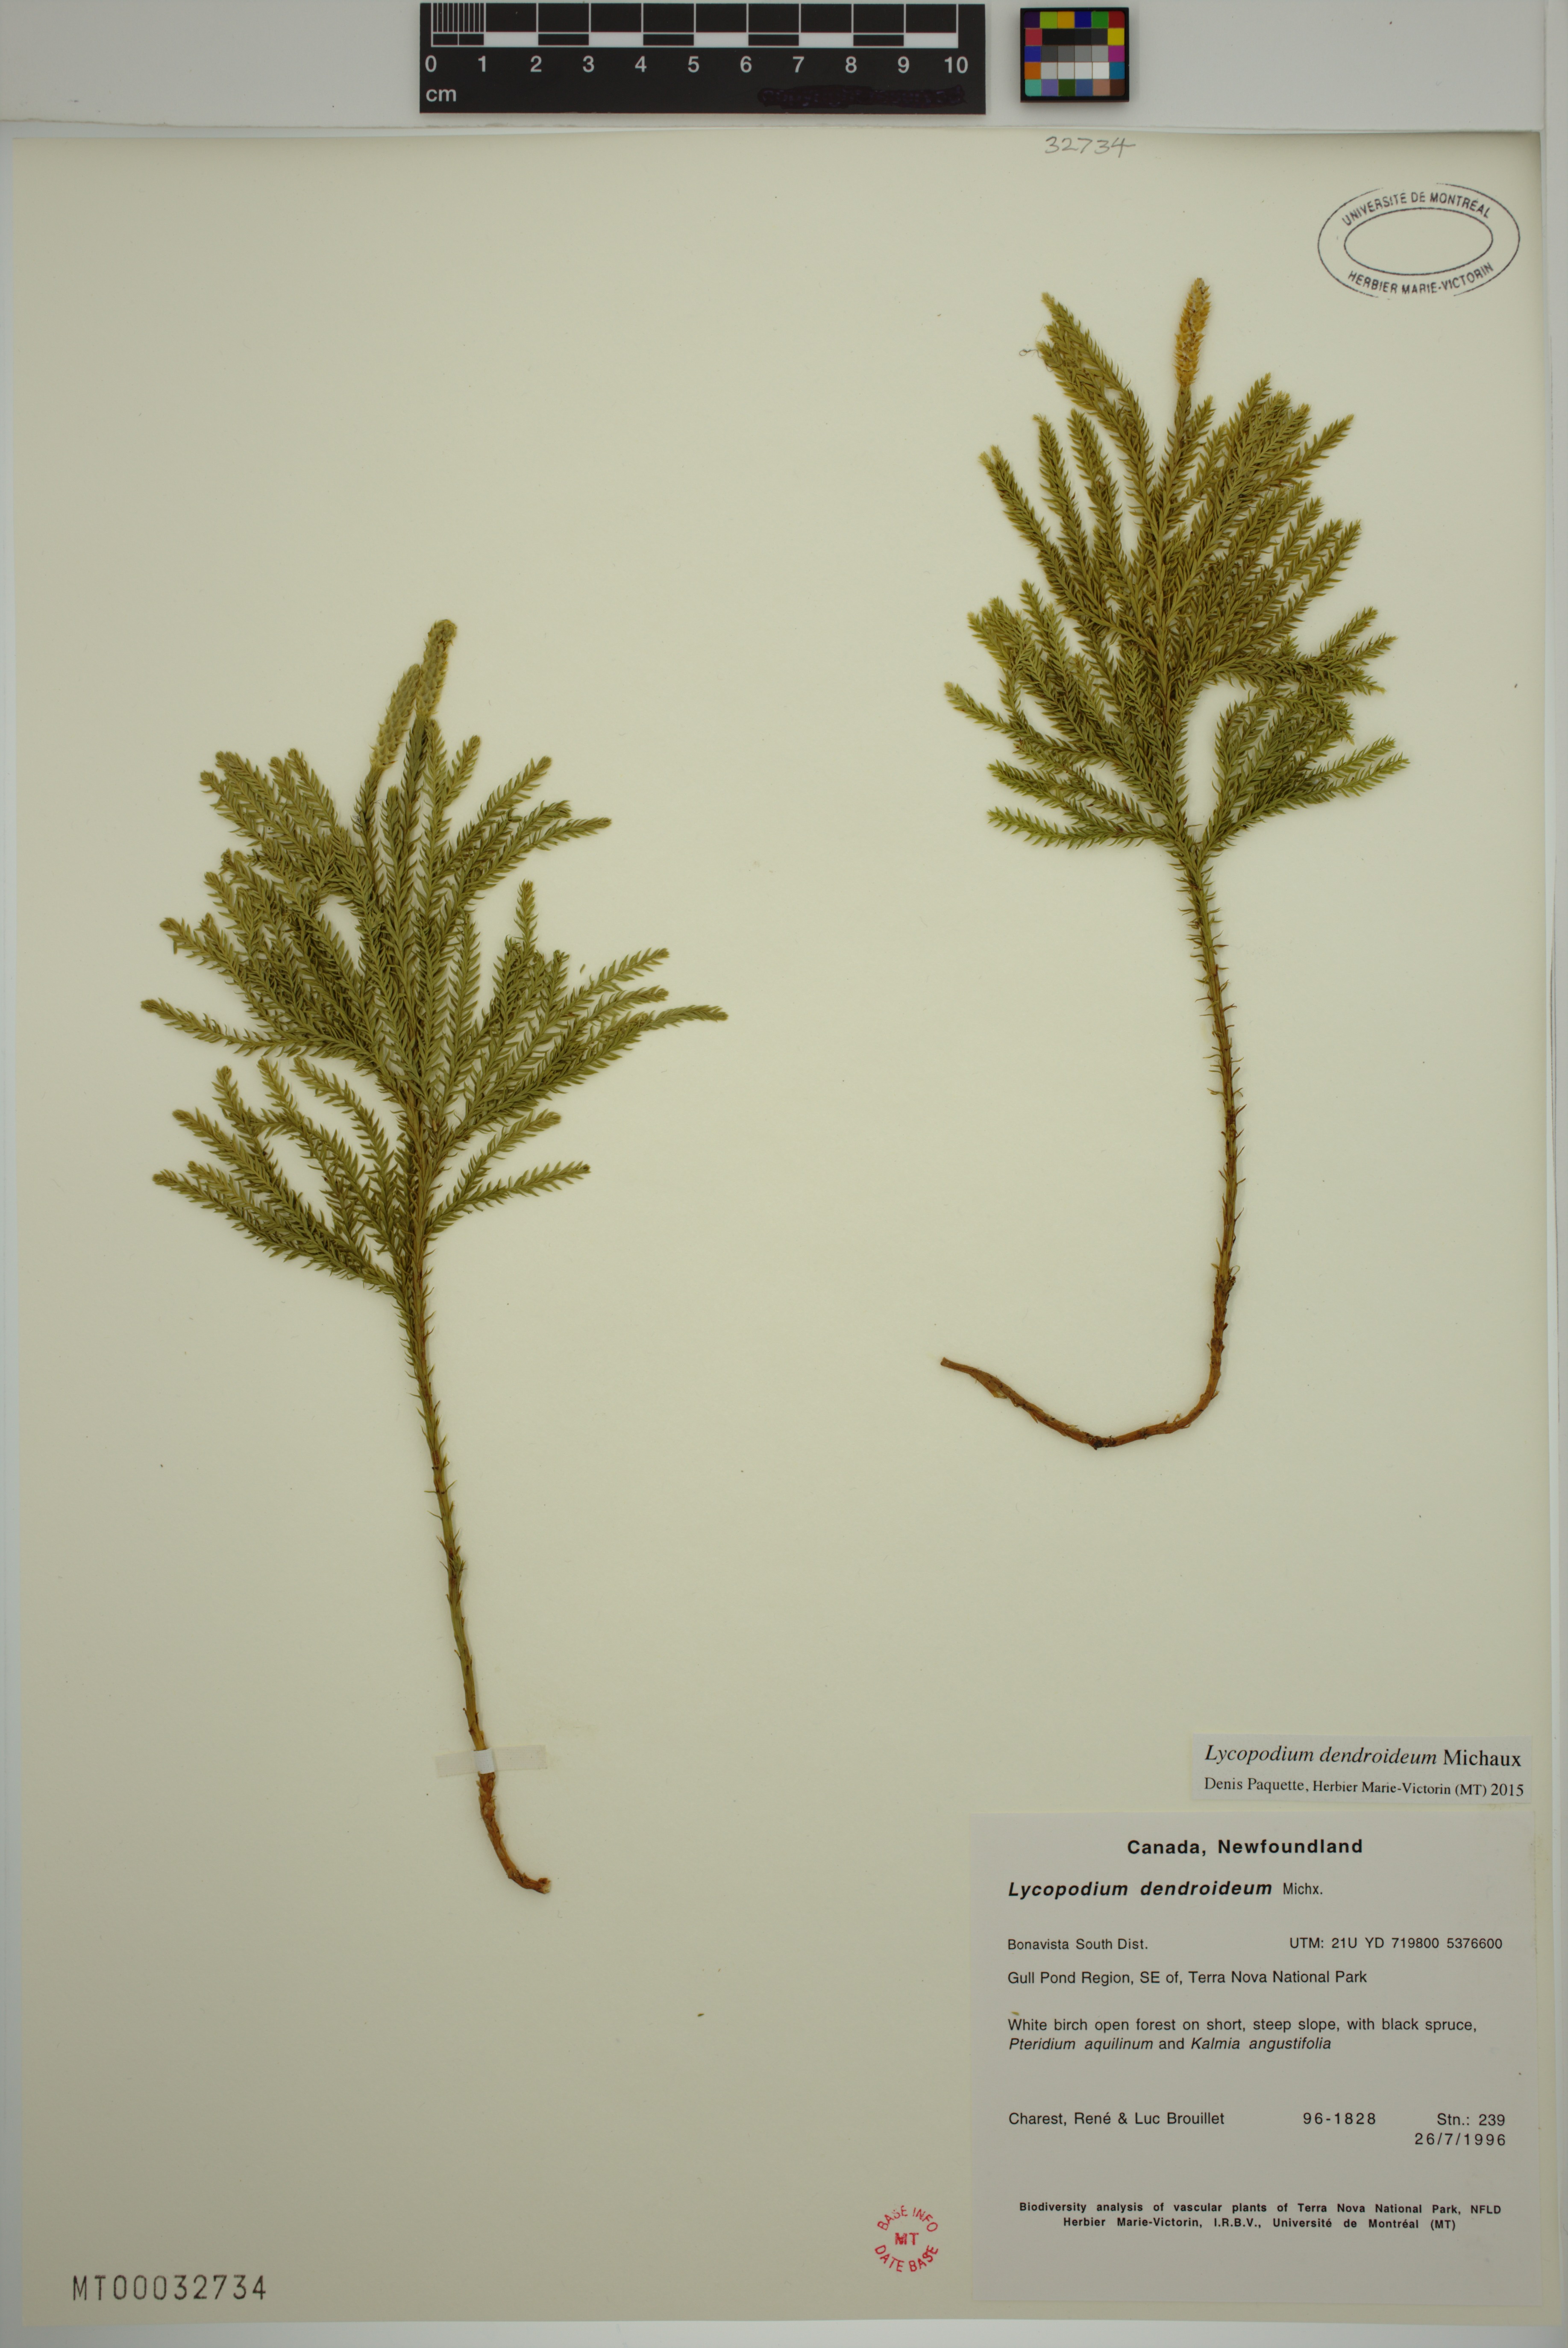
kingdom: Plantae
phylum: Tracheophyta
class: Lycopodiopsida
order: Lycopodiales
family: Lycopodiaceae
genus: Dendrolycopodium
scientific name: Dendrolycopodium dendroideum
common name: Northern tree-clubmoss
